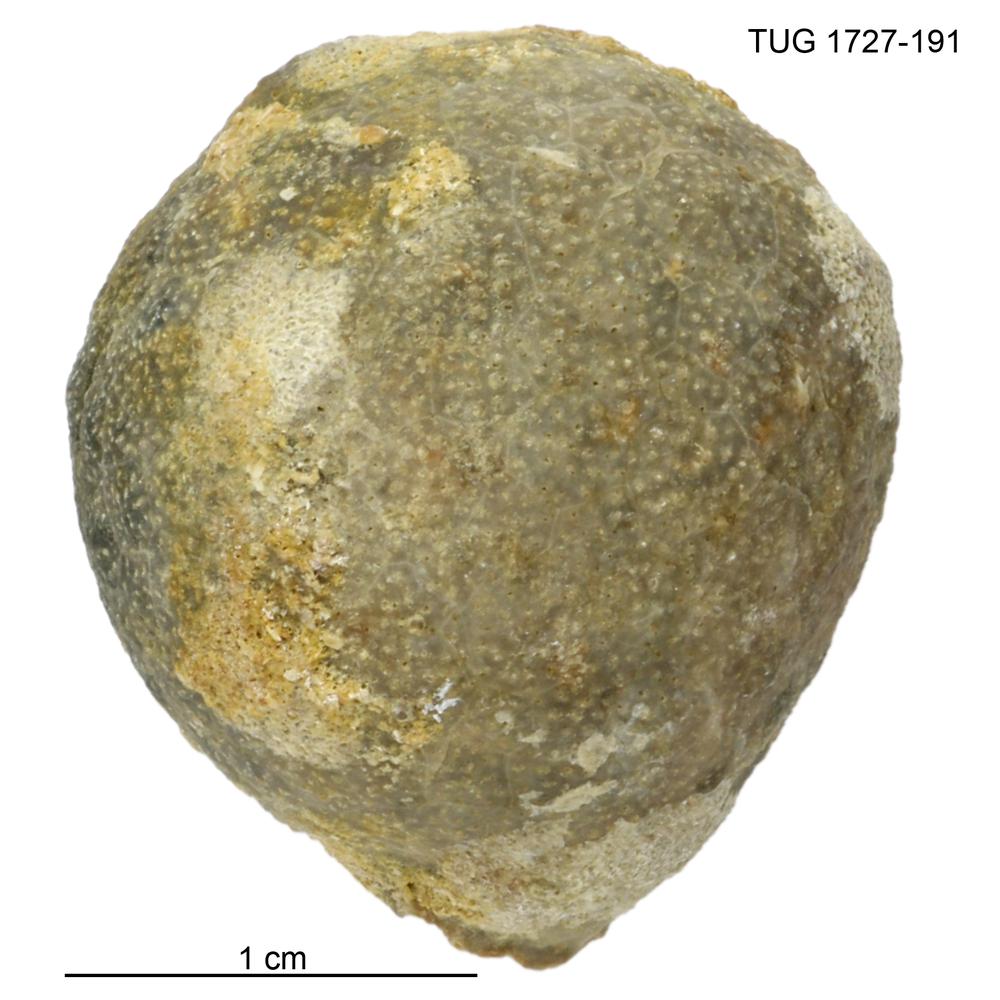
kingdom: Animalia
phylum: Echinodermata
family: Echinosphaeritidae
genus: Echinosphaerites
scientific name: Echinosphaerites Echinus aurantium
